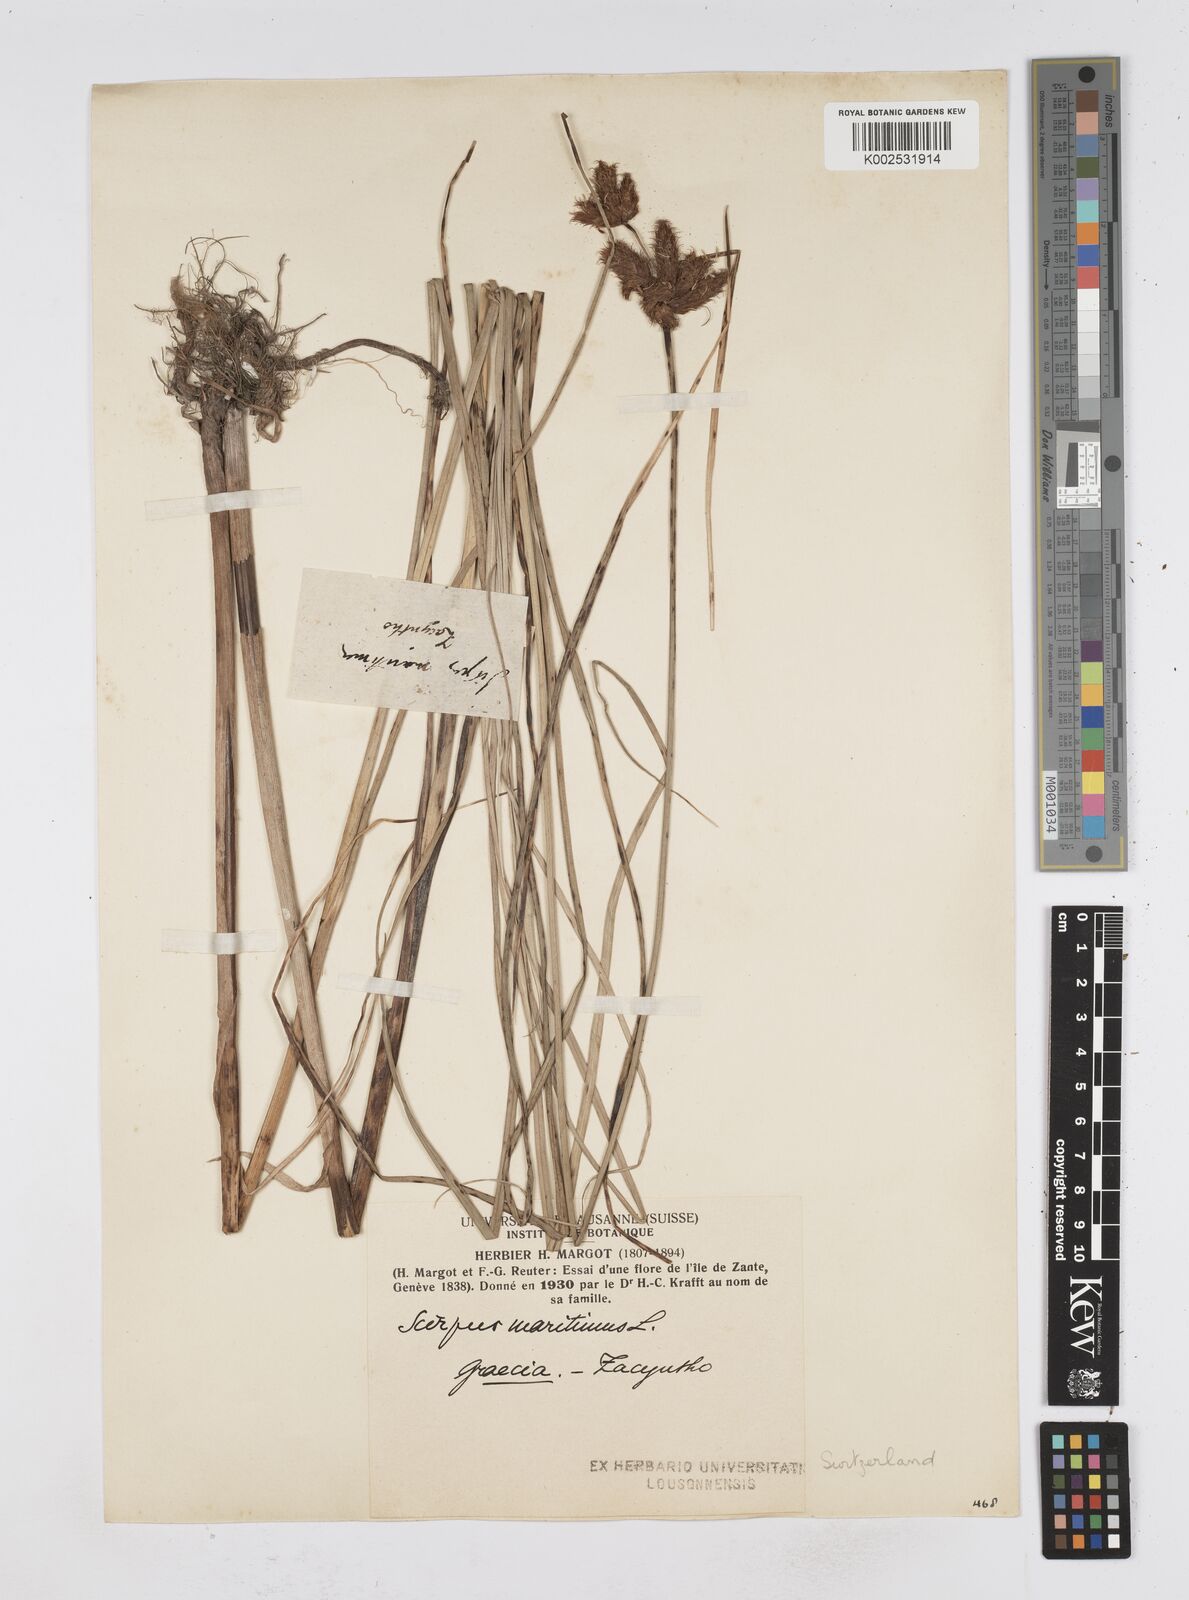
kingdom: Plantae
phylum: Tracheophyta
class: Liliopsida
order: Poales
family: Cyperaceae
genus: Bolboschoenus
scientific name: Bolboschoenus maritimus
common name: Sea club-rush
